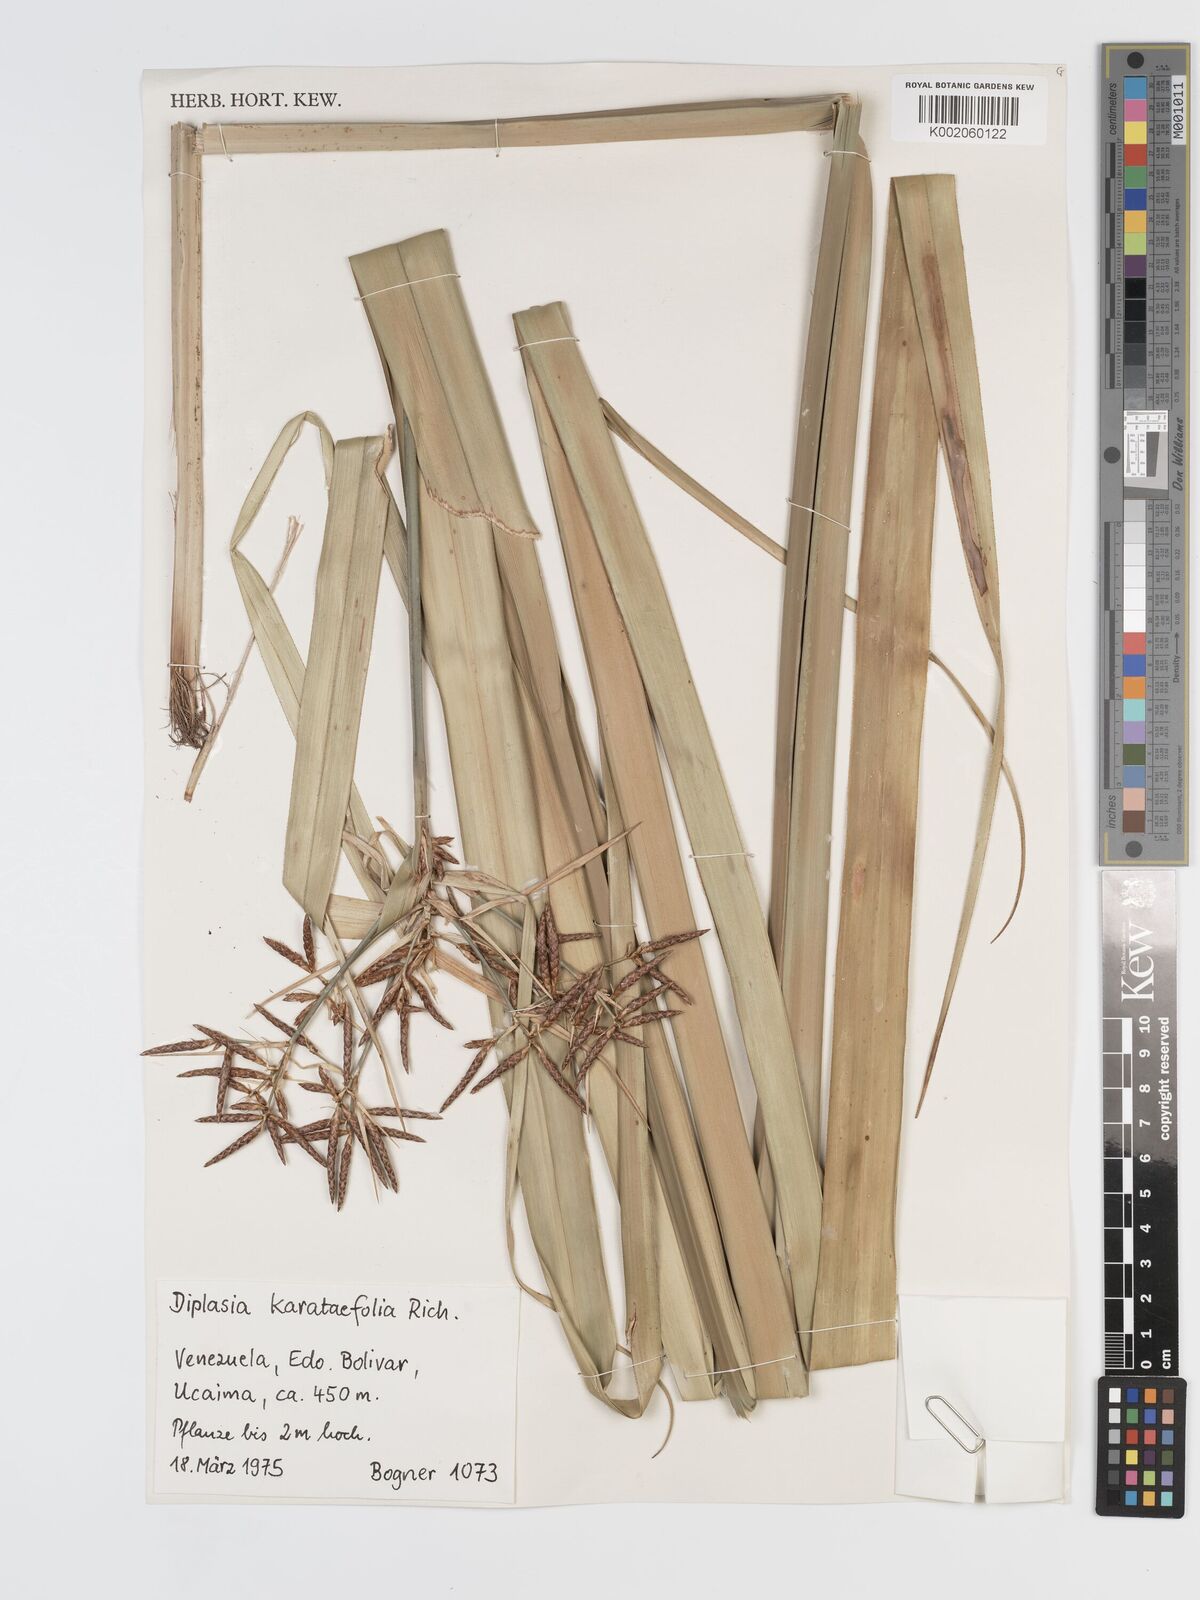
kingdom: Plantae
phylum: Tracheophyta
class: Liliopsida
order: Poales
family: Cyperaceae
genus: Diplasia
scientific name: Diplasia karatifolia
